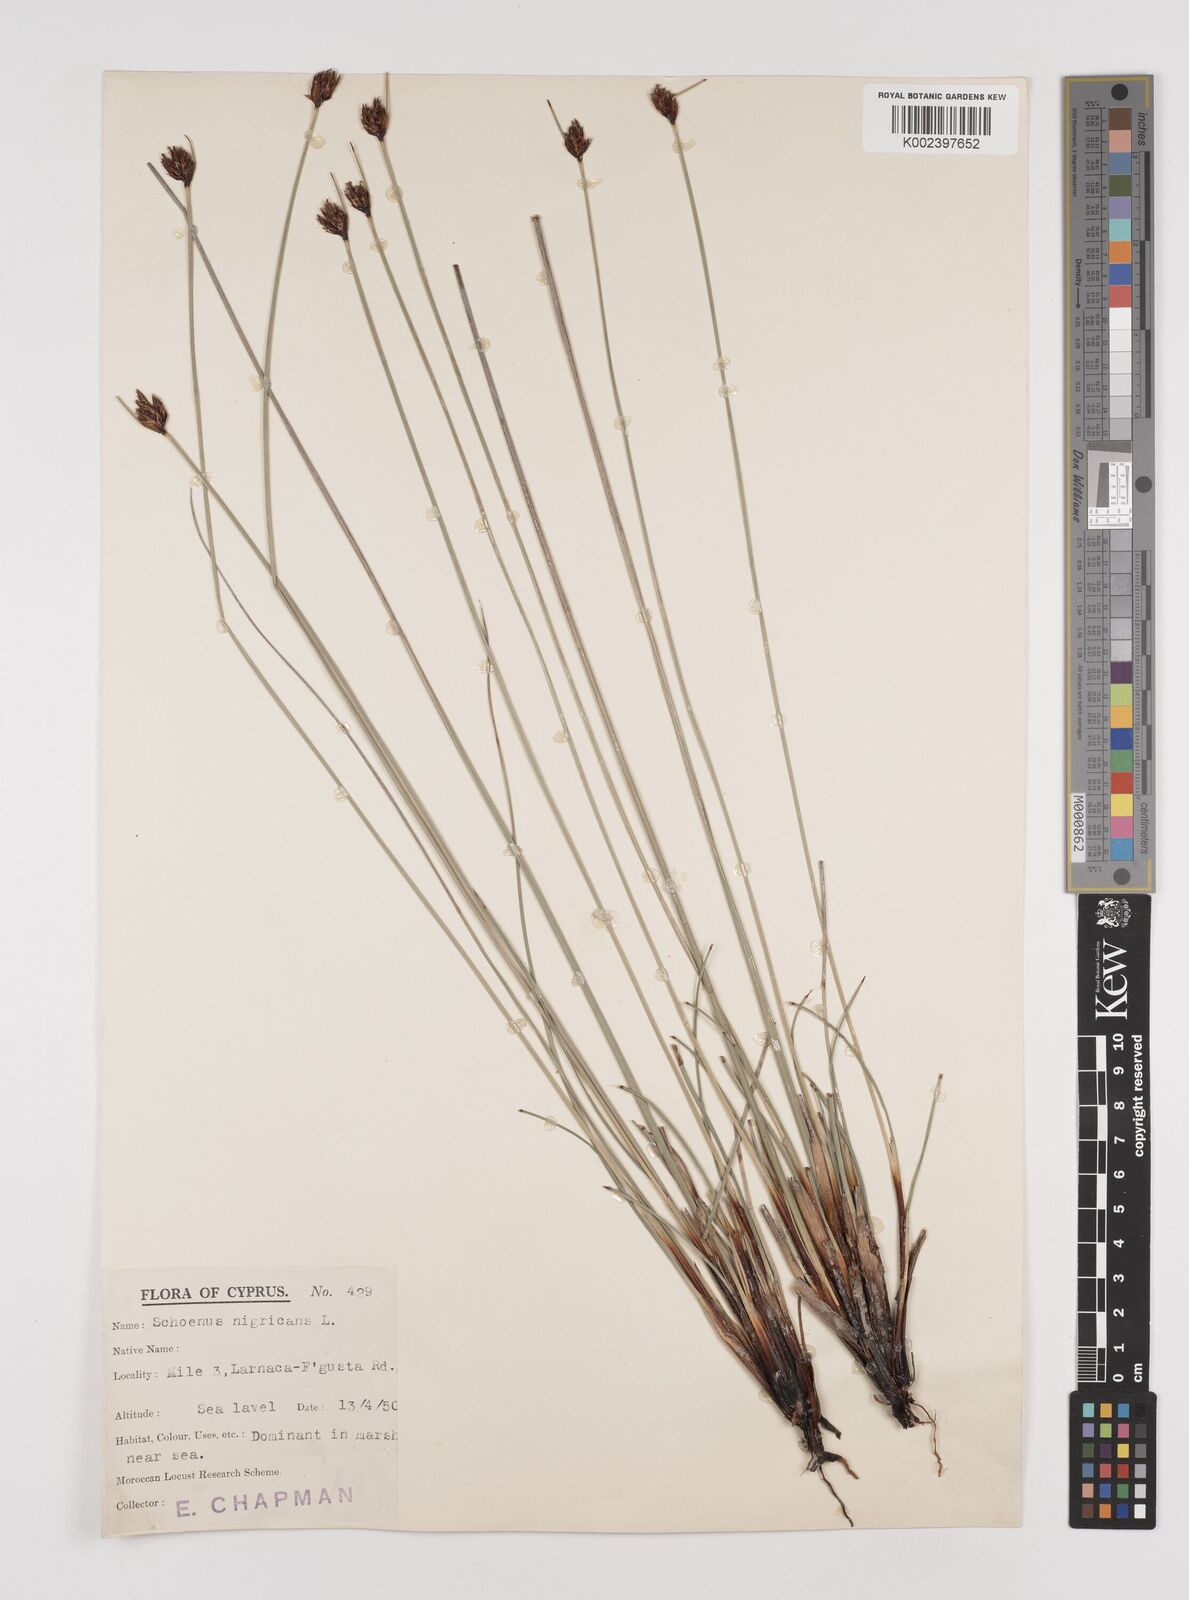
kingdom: Plantae
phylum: Tracheophyta
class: Liliopsida
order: Poales
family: Cyperaceae
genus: Schoenus
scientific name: Schoenus nigricans
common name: Black bog-rush
